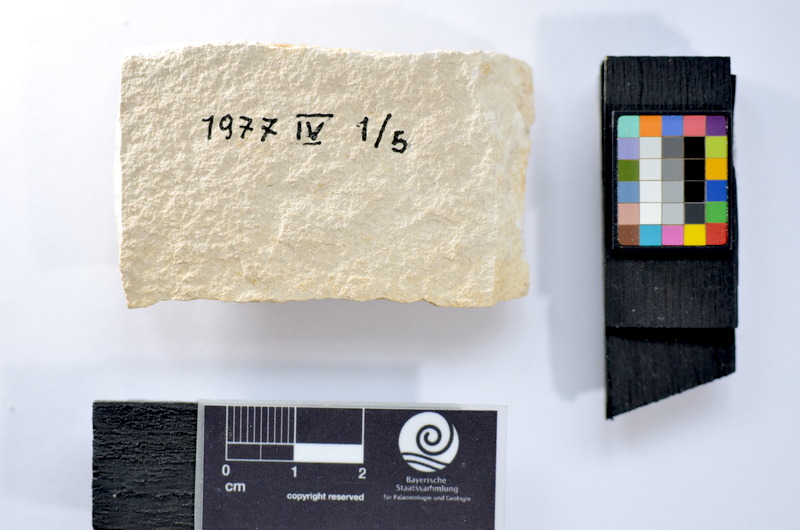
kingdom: Animalia
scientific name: Animalia
